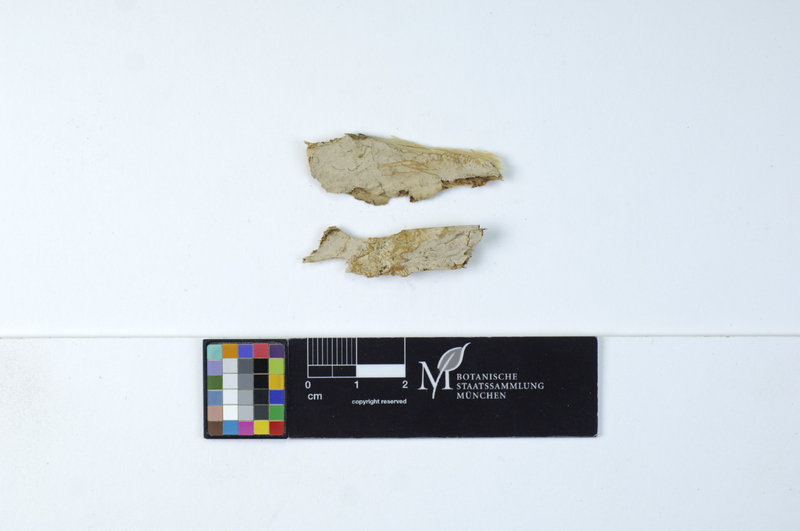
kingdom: Fungi
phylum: Basidiomycota
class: Agaricomycetes
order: Russulales
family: Echinodontiaceae
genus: Amylostereum
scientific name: Amylostereum areolatum
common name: White rot fungus
